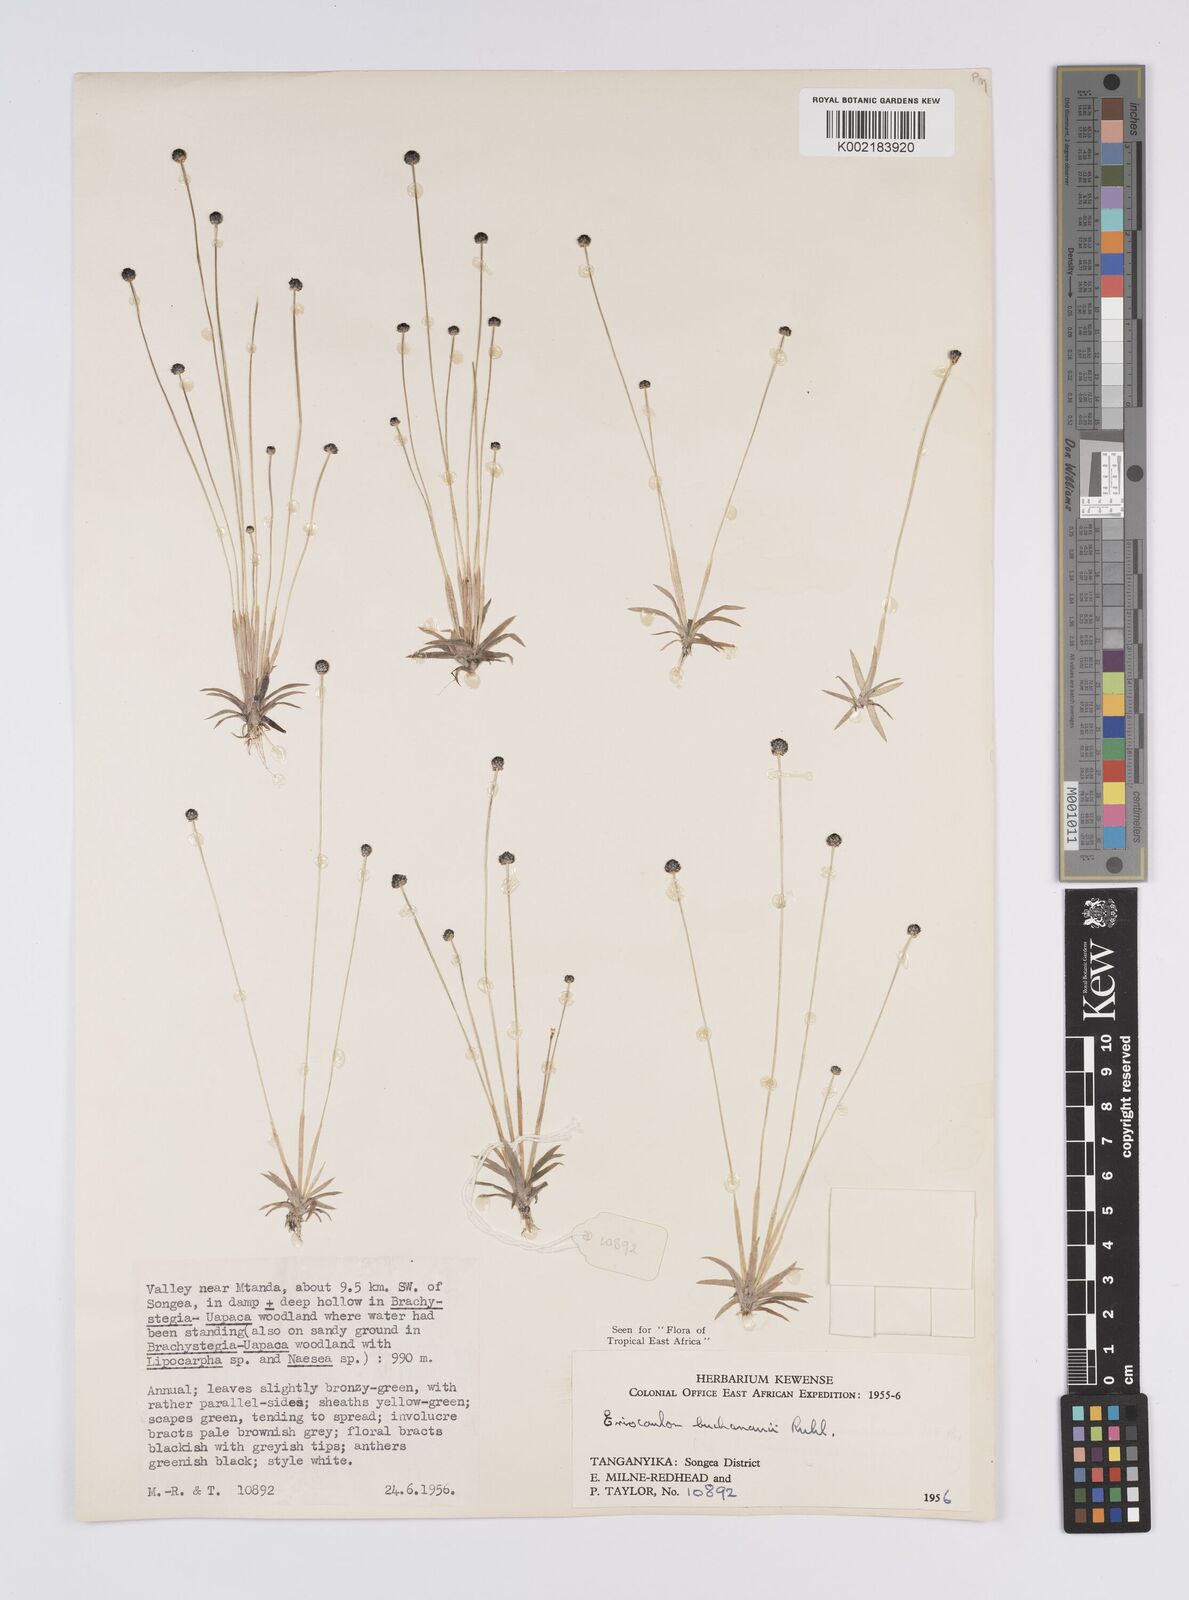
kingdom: Plantae
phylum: Tracheophyta
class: Liliopsida
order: Poales
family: Eriocaulaceae
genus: Eriocaulon
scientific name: Eriocaulon buchananii
